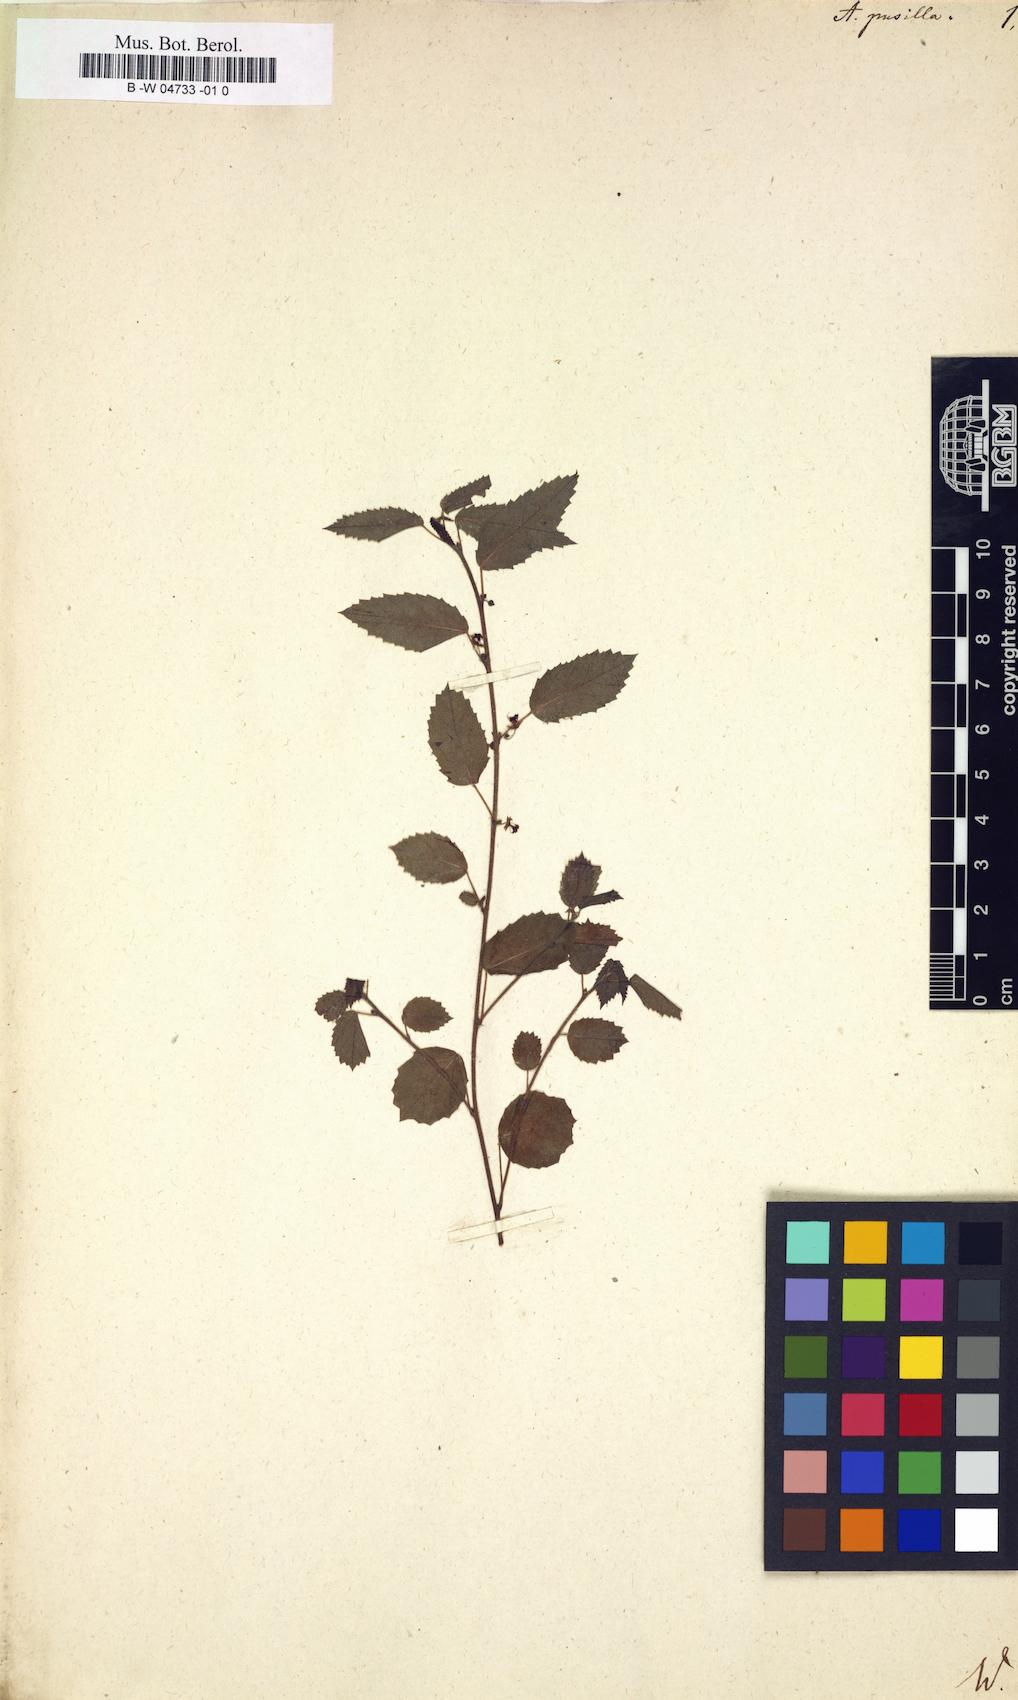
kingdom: Plantae
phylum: Tracheophyta
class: Magnoliopsida
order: Malvales
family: Malvaceae
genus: Ayenia
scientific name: Ayenia pusilla
